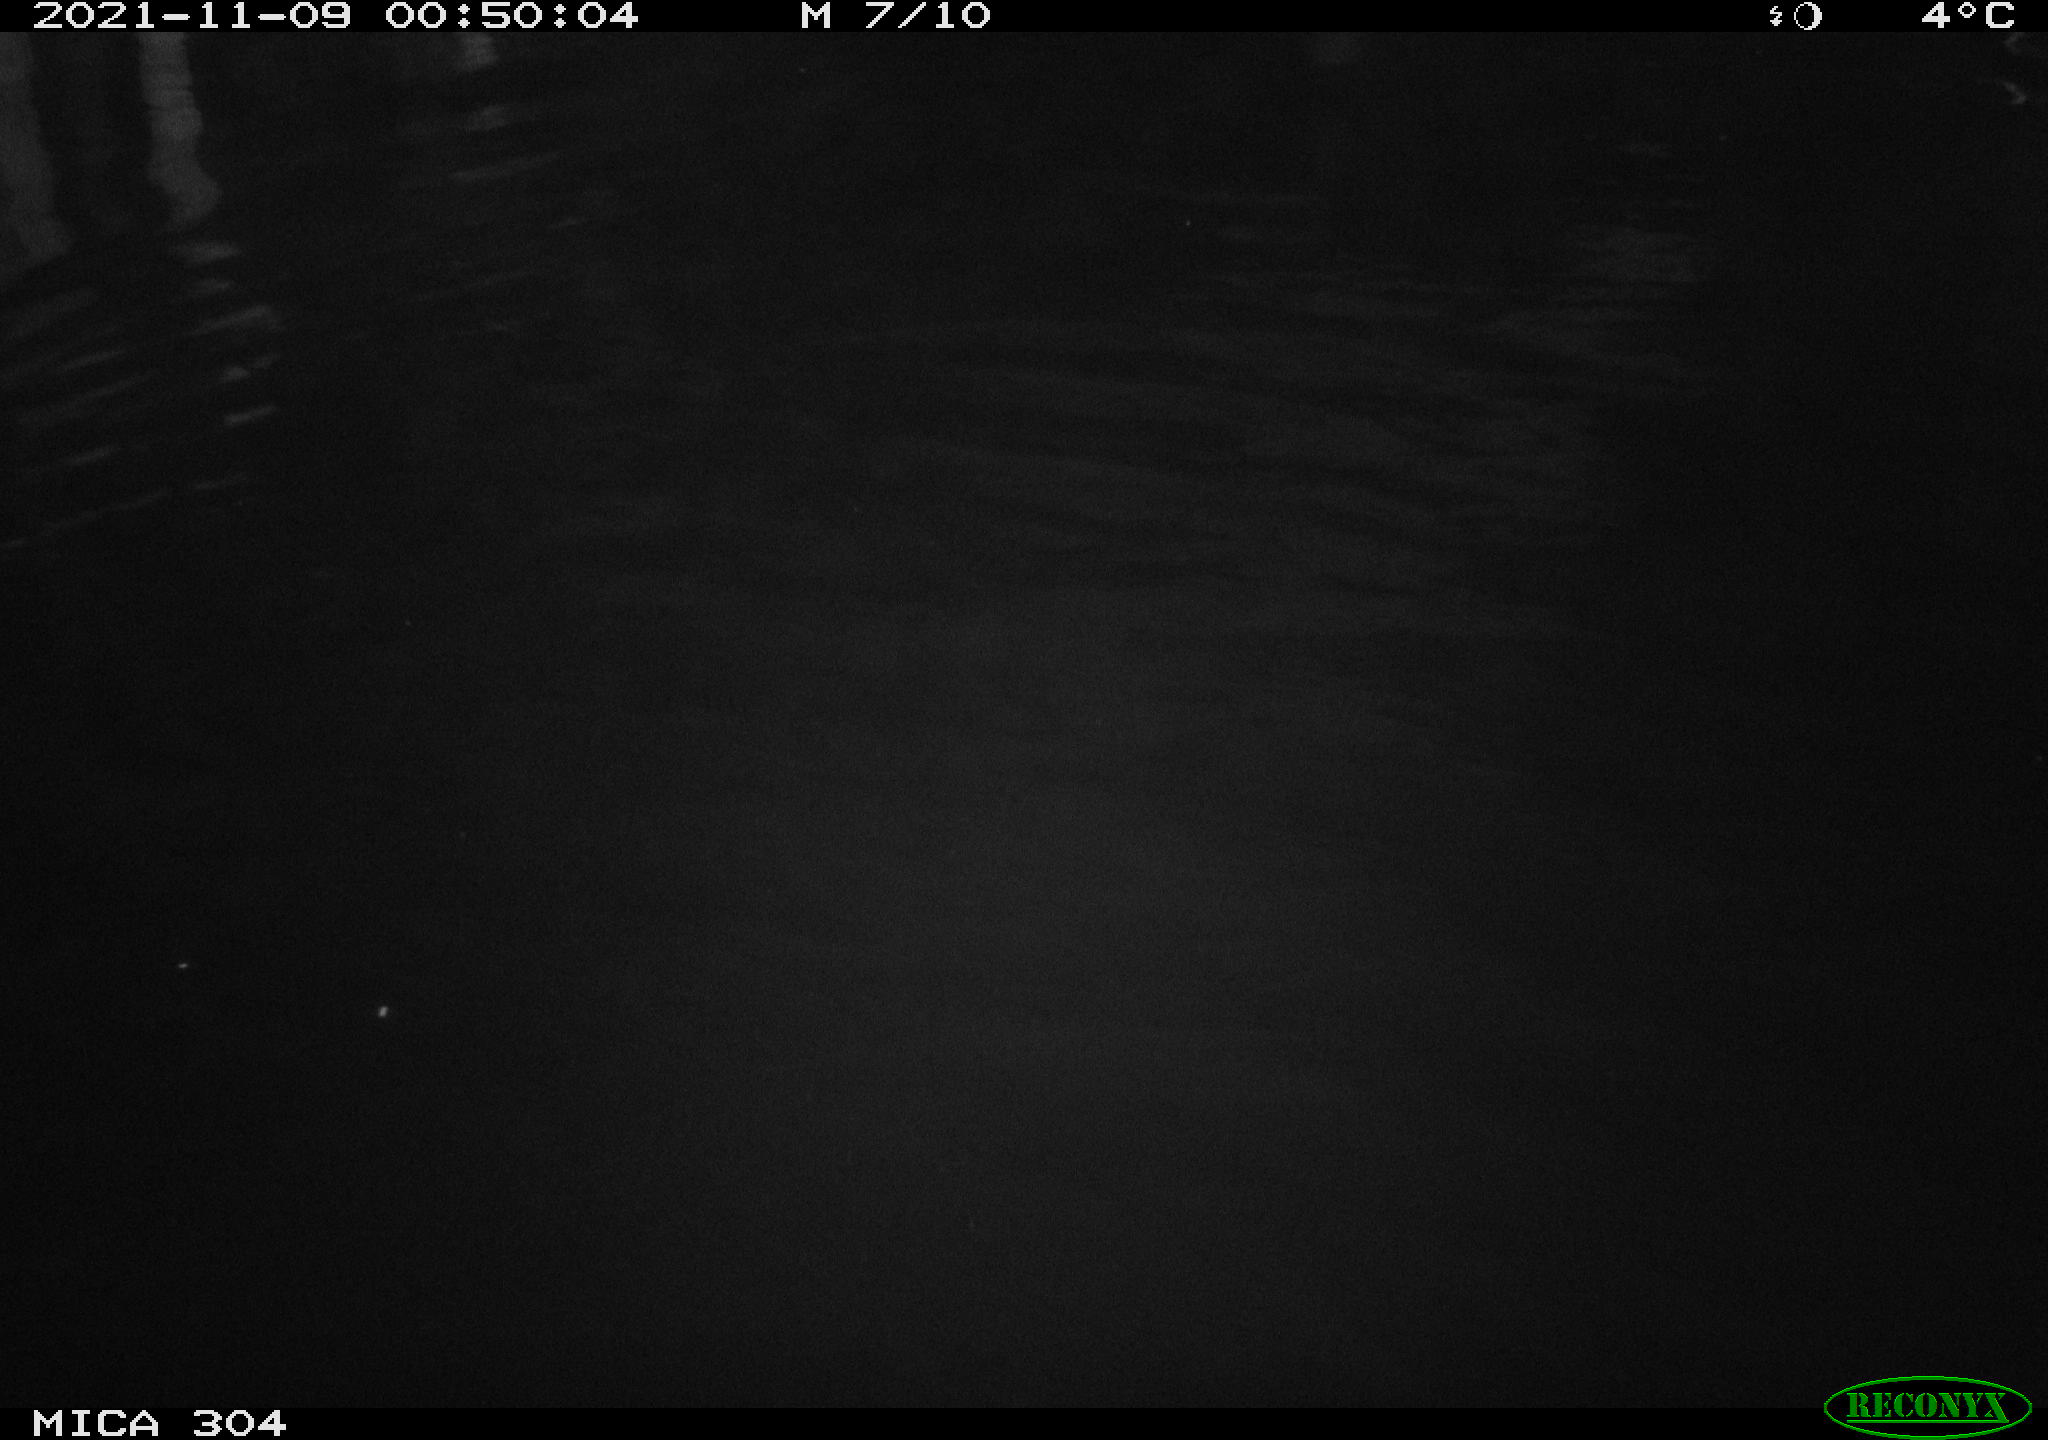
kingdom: Animalia
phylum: Chordata
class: Mammalia
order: Rodentia
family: Cricetidae
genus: Ondatra
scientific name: Ondatra zibethicus
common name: Muskrat
